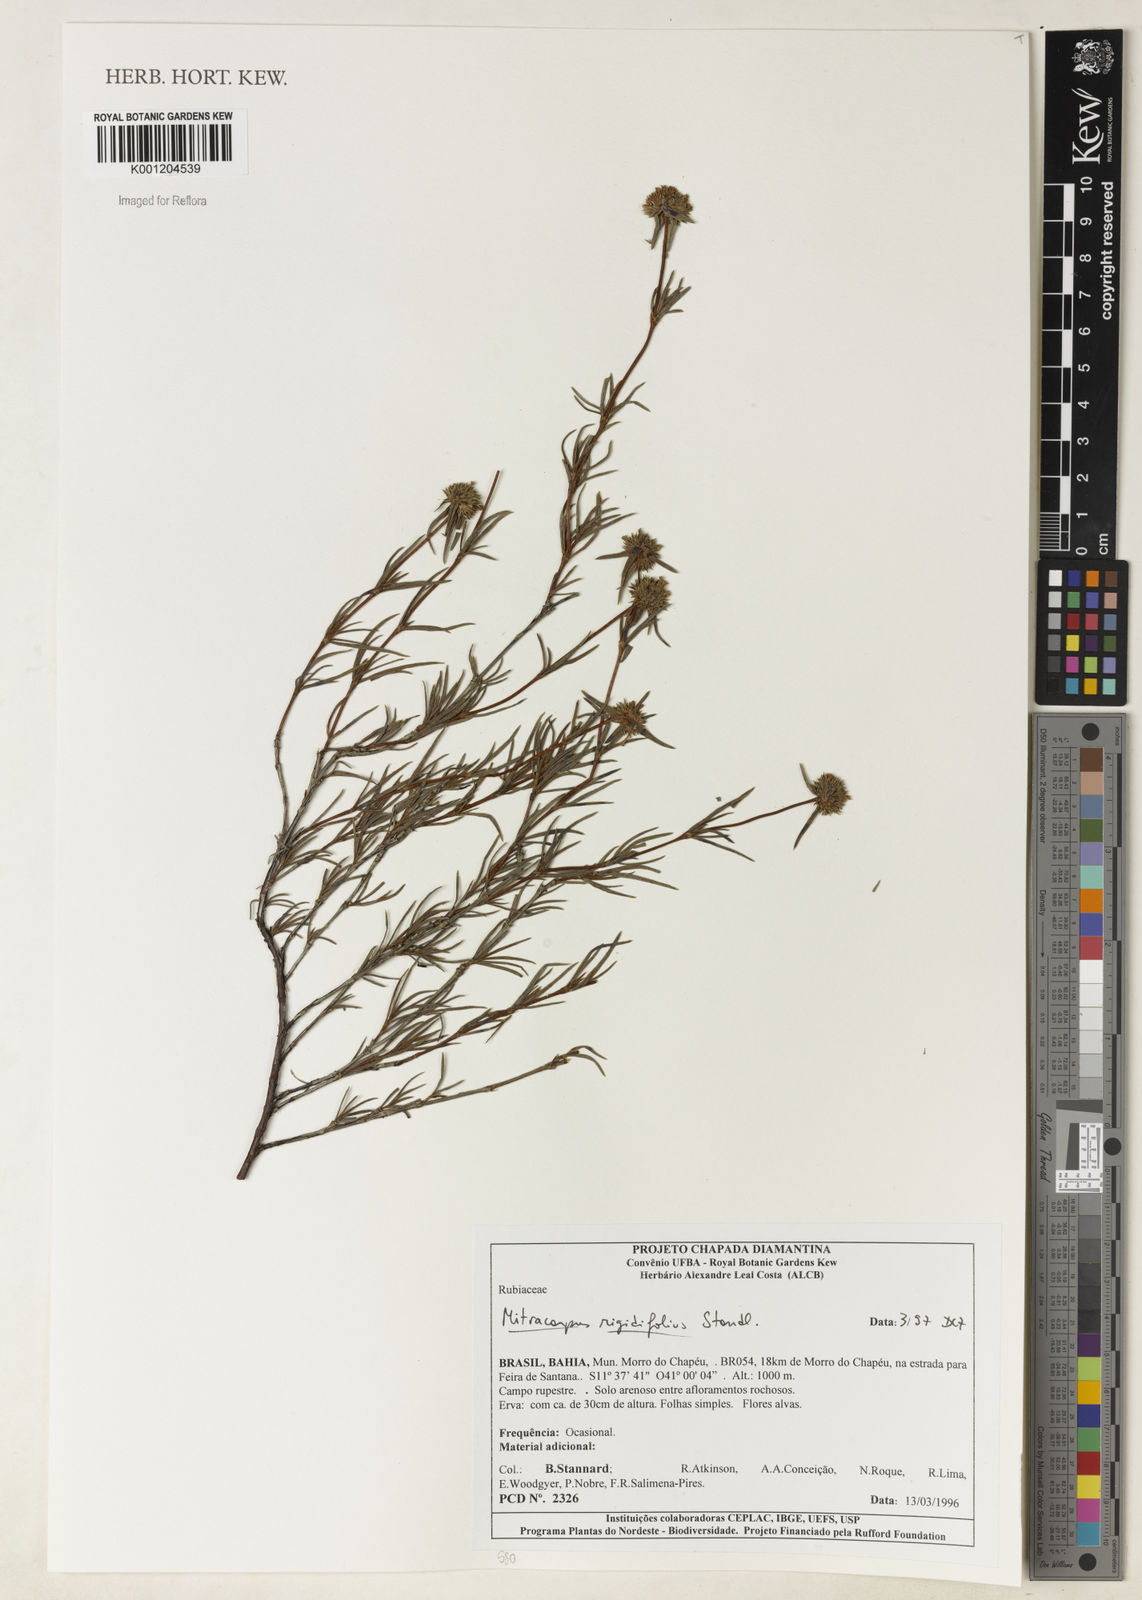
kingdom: Plantae
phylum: Tracheophyta
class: Magnoliopsida
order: Gentianales
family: Rubiaceae
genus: Mitracarpus
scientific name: Mitracarpus rigidifolius
